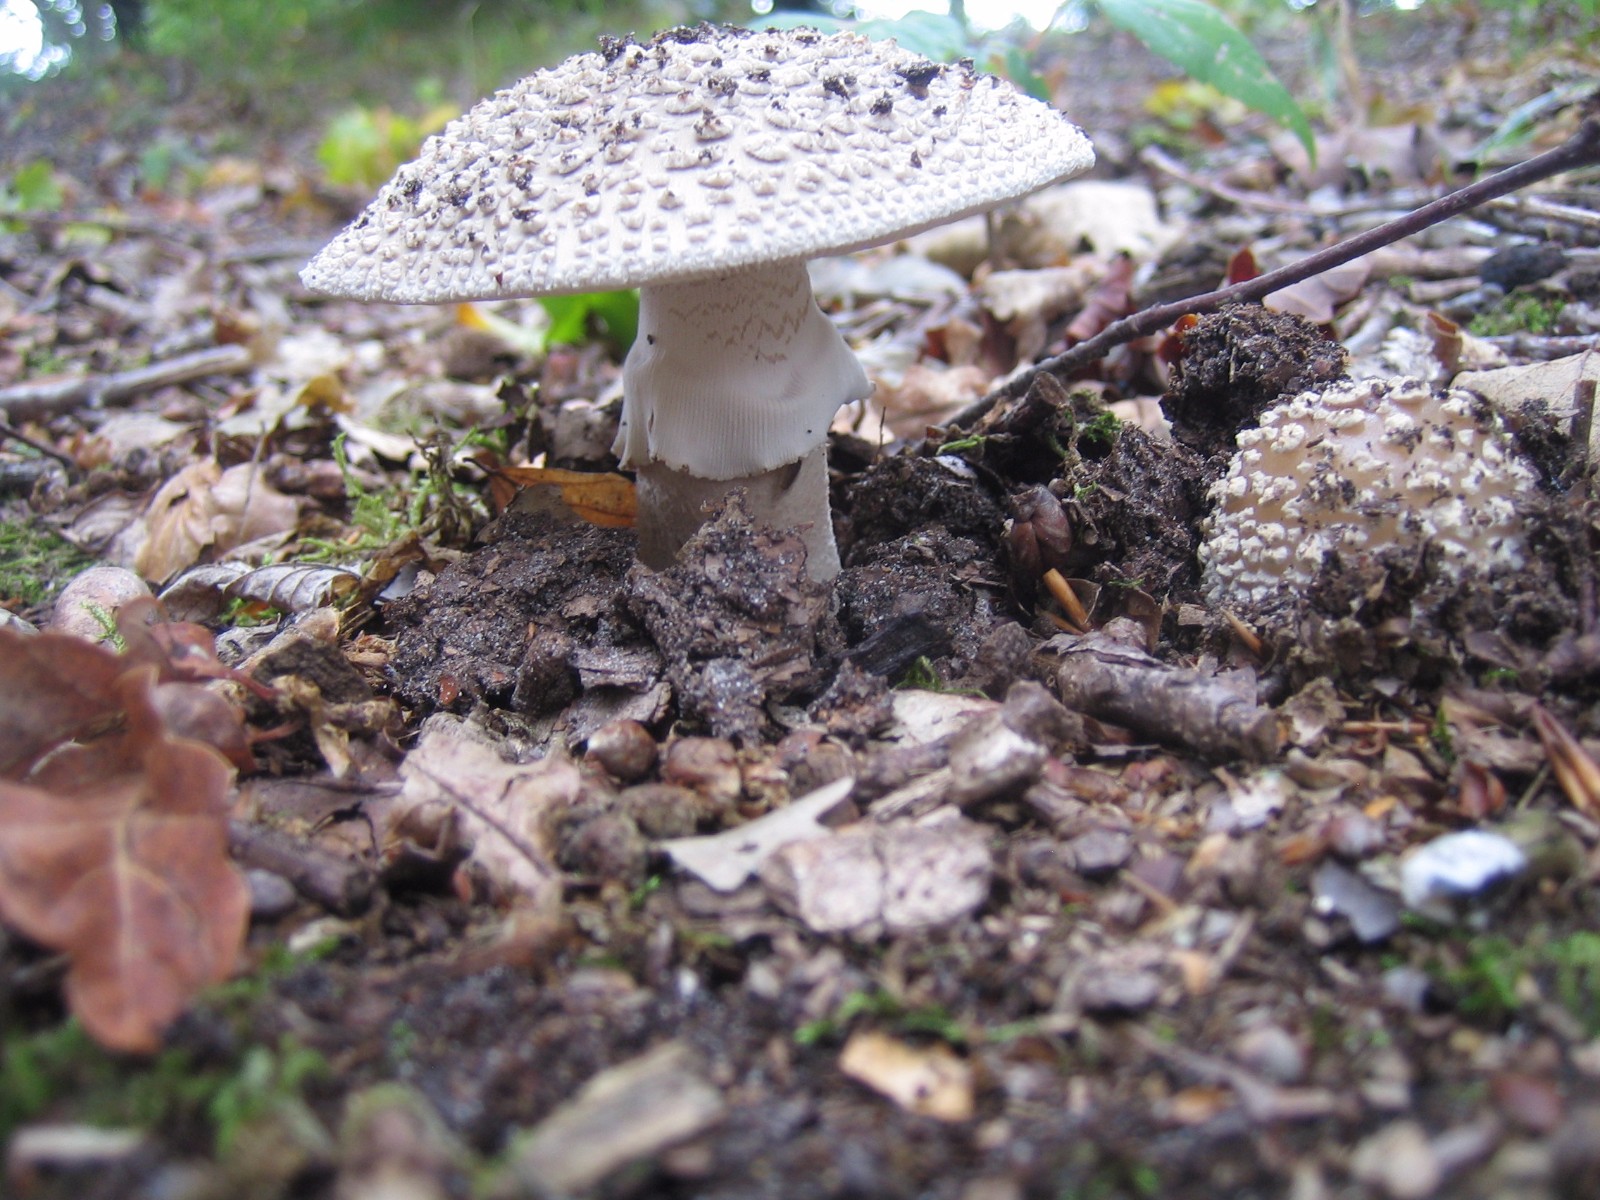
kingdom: Fungi
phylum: Basidiomycota
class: Agaricomycetes
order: Agaricales
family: Amanitaceae
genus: Amanita
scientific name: Amanita
